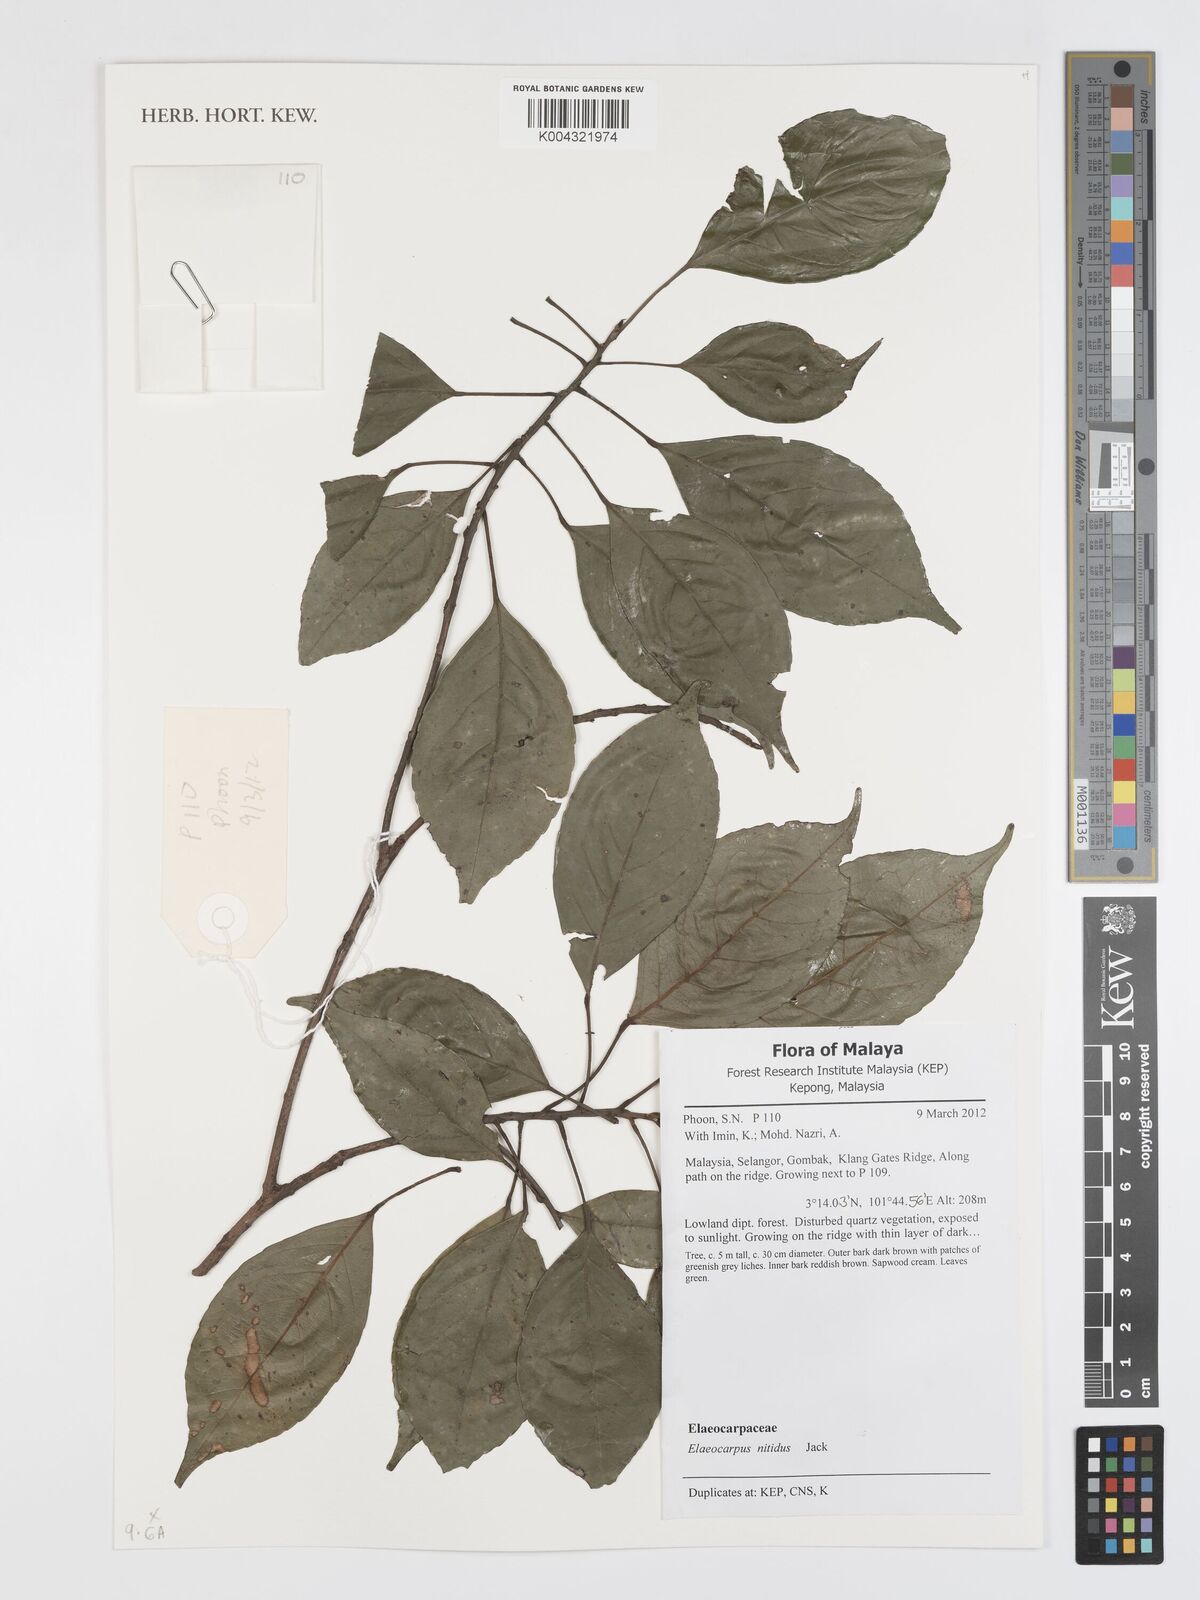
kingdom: Plantae
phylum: Tracheophyta
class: Magnoliopsida
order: Oxalidales
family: Elaeocarpaceae
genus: Elaeocarpus
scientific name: Elaeocarpus nitidus
